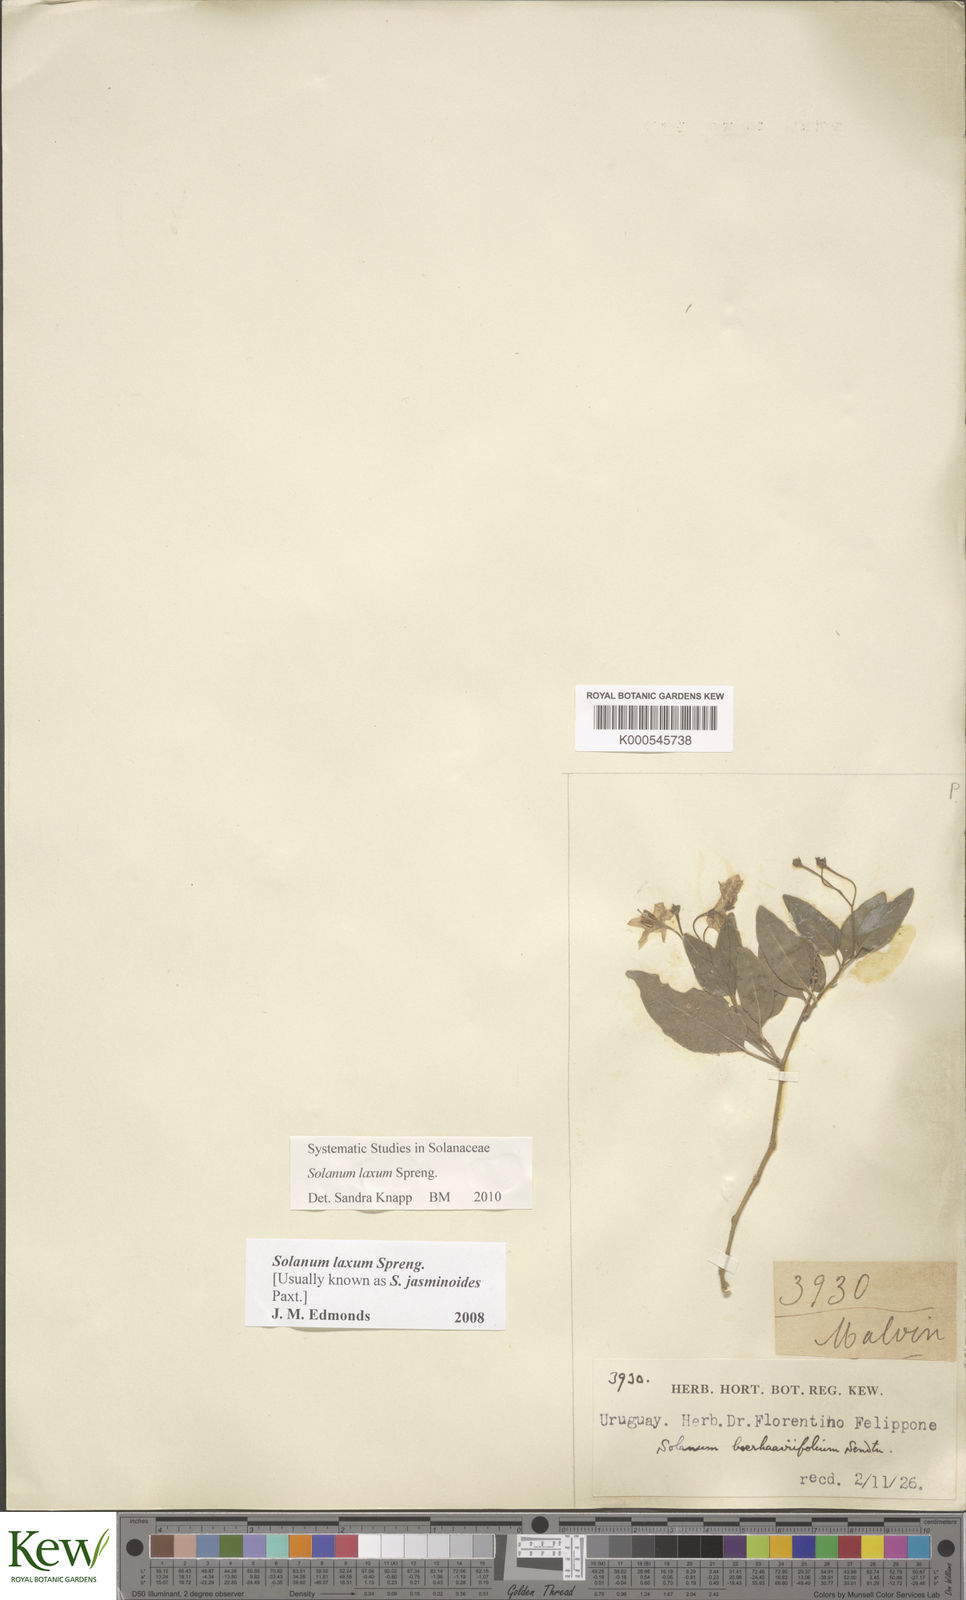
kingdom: Plantae
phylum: Tracheophyta
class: Magnoliopsida
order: Solanales
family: Solanaceae
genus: Solanum
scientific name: Solanum laxum
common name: Nightshade
